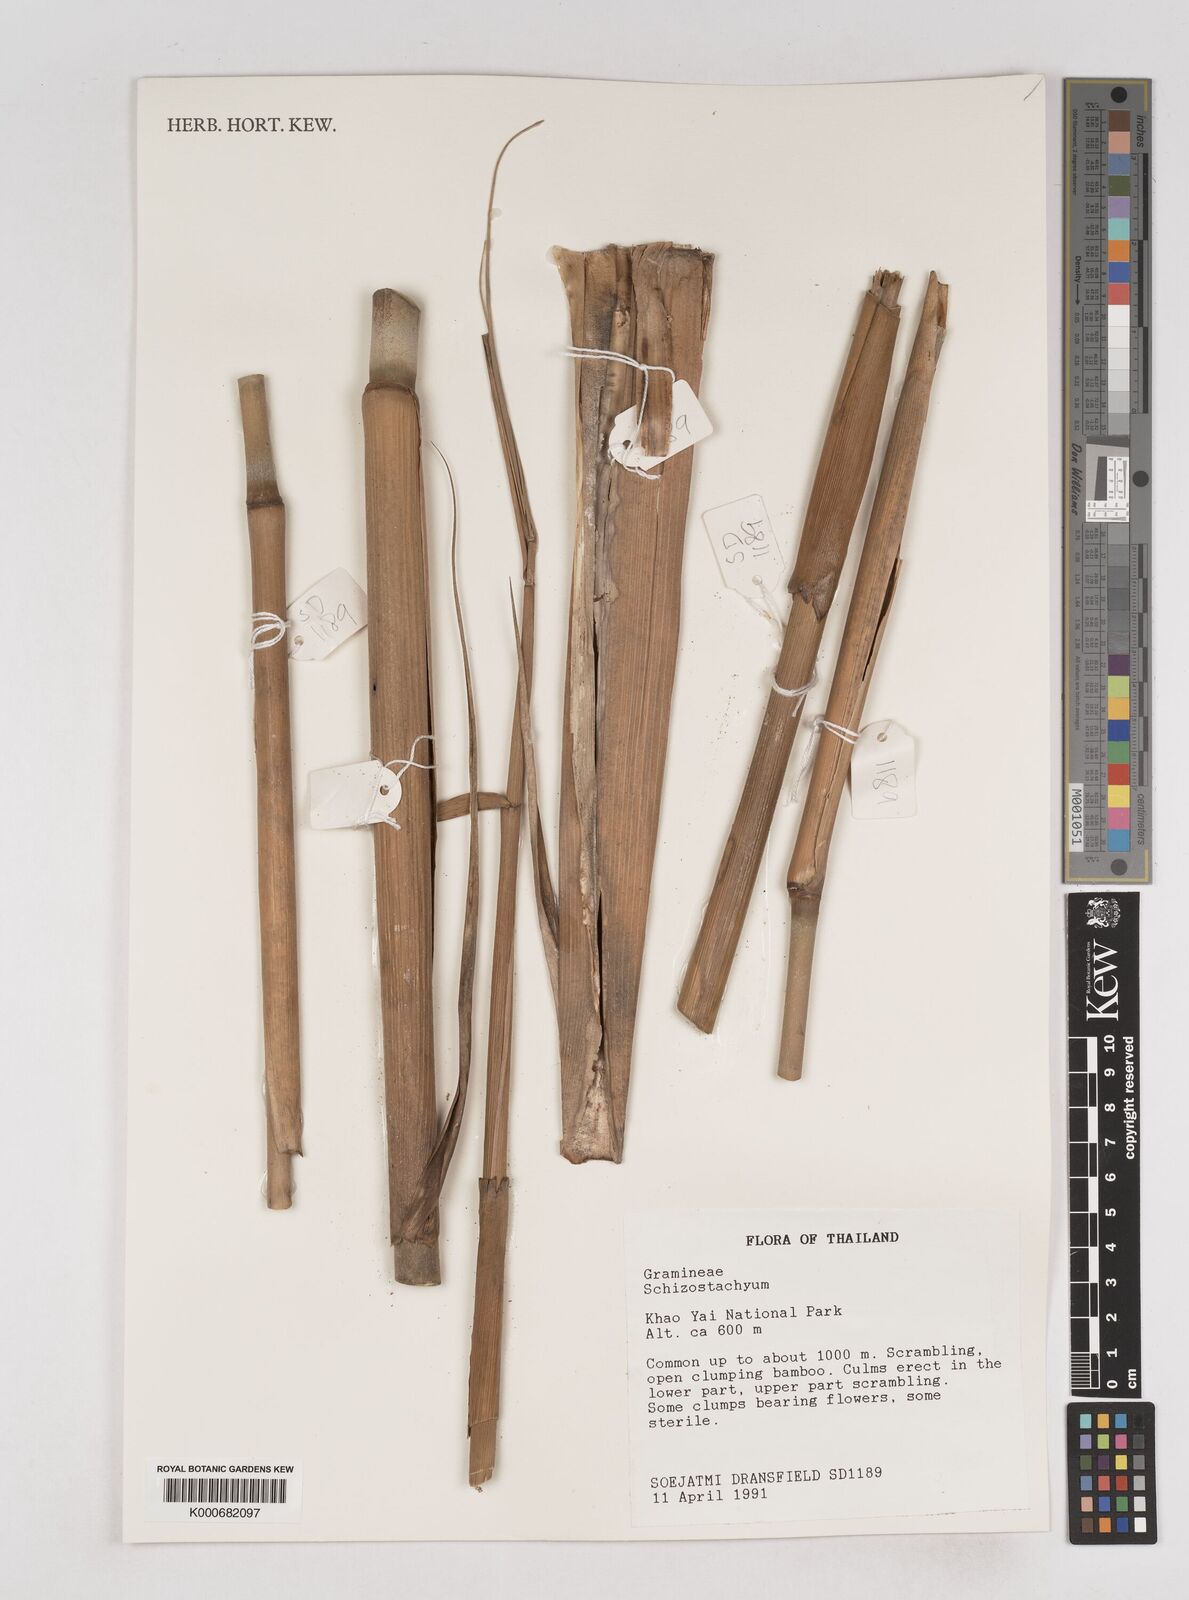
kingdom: Plantae
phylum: Tracheophyta
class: Liliopsida
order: Poales
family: Poaceae
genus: Schizostachyum
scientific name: Schizostachyum
